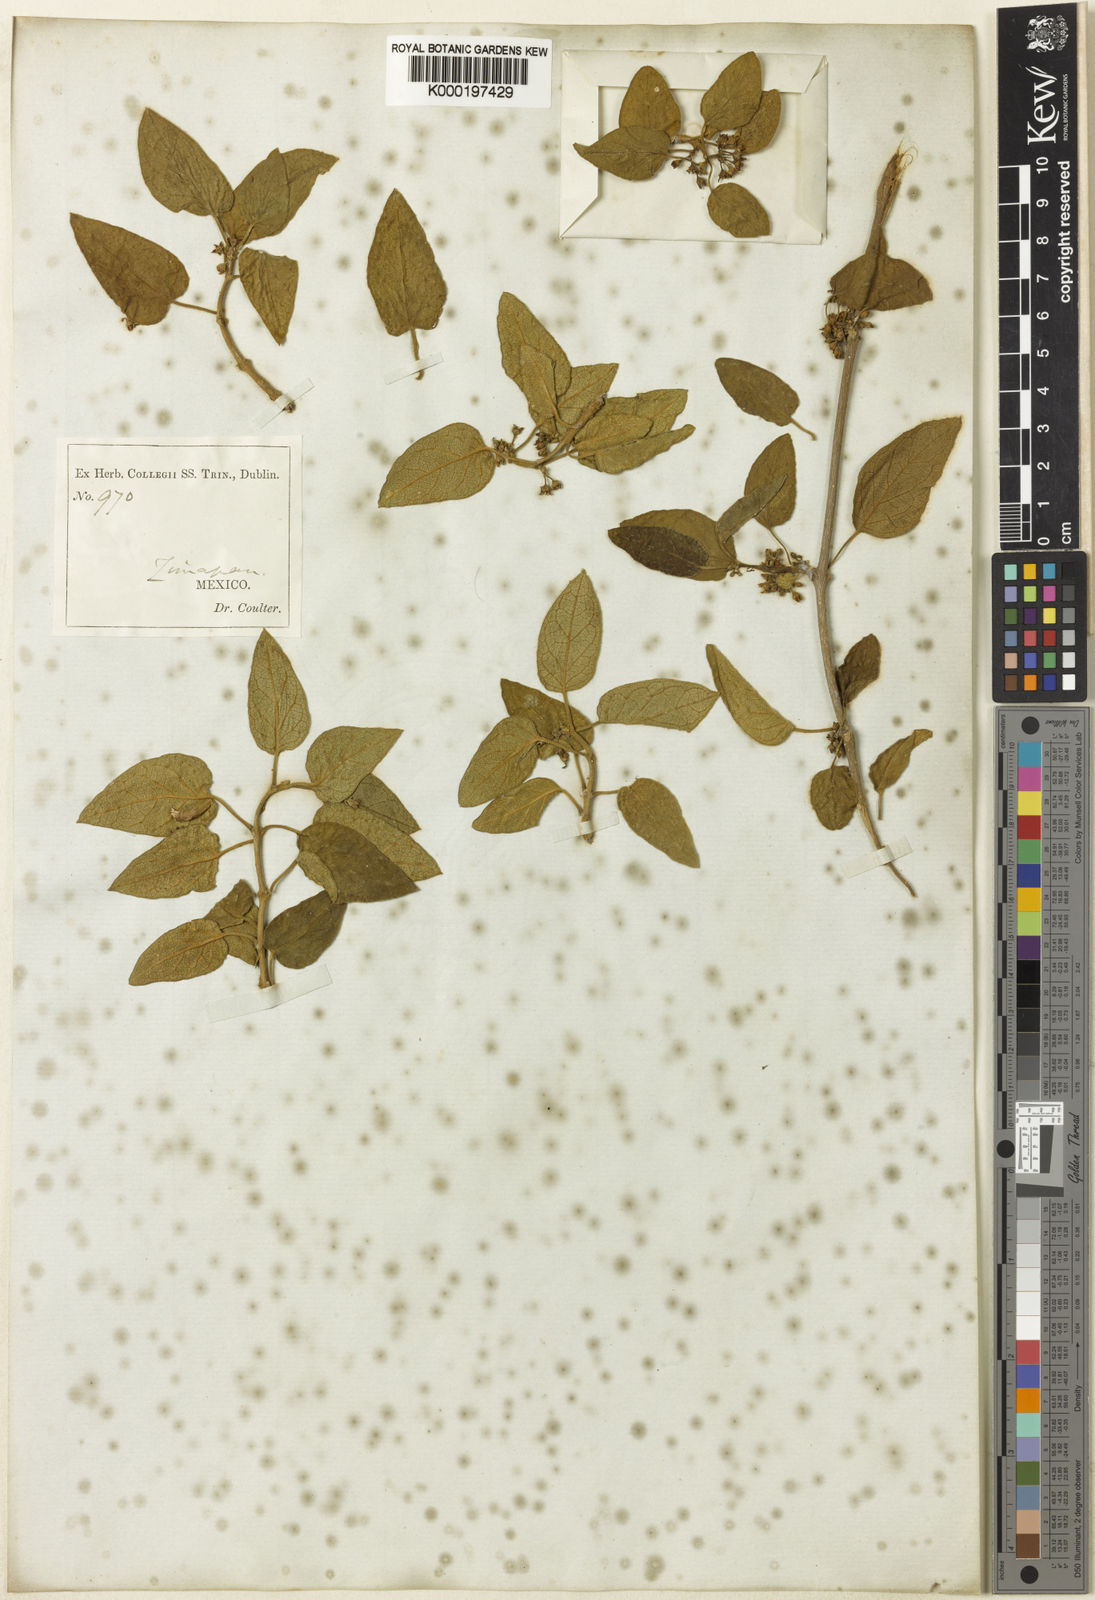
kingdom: Plantae
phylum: Tracheophyta
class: Magnoliopsida
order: Gentianales
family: Apocynaceae
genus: Ruehssia
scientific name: Ruehssia coulteri
